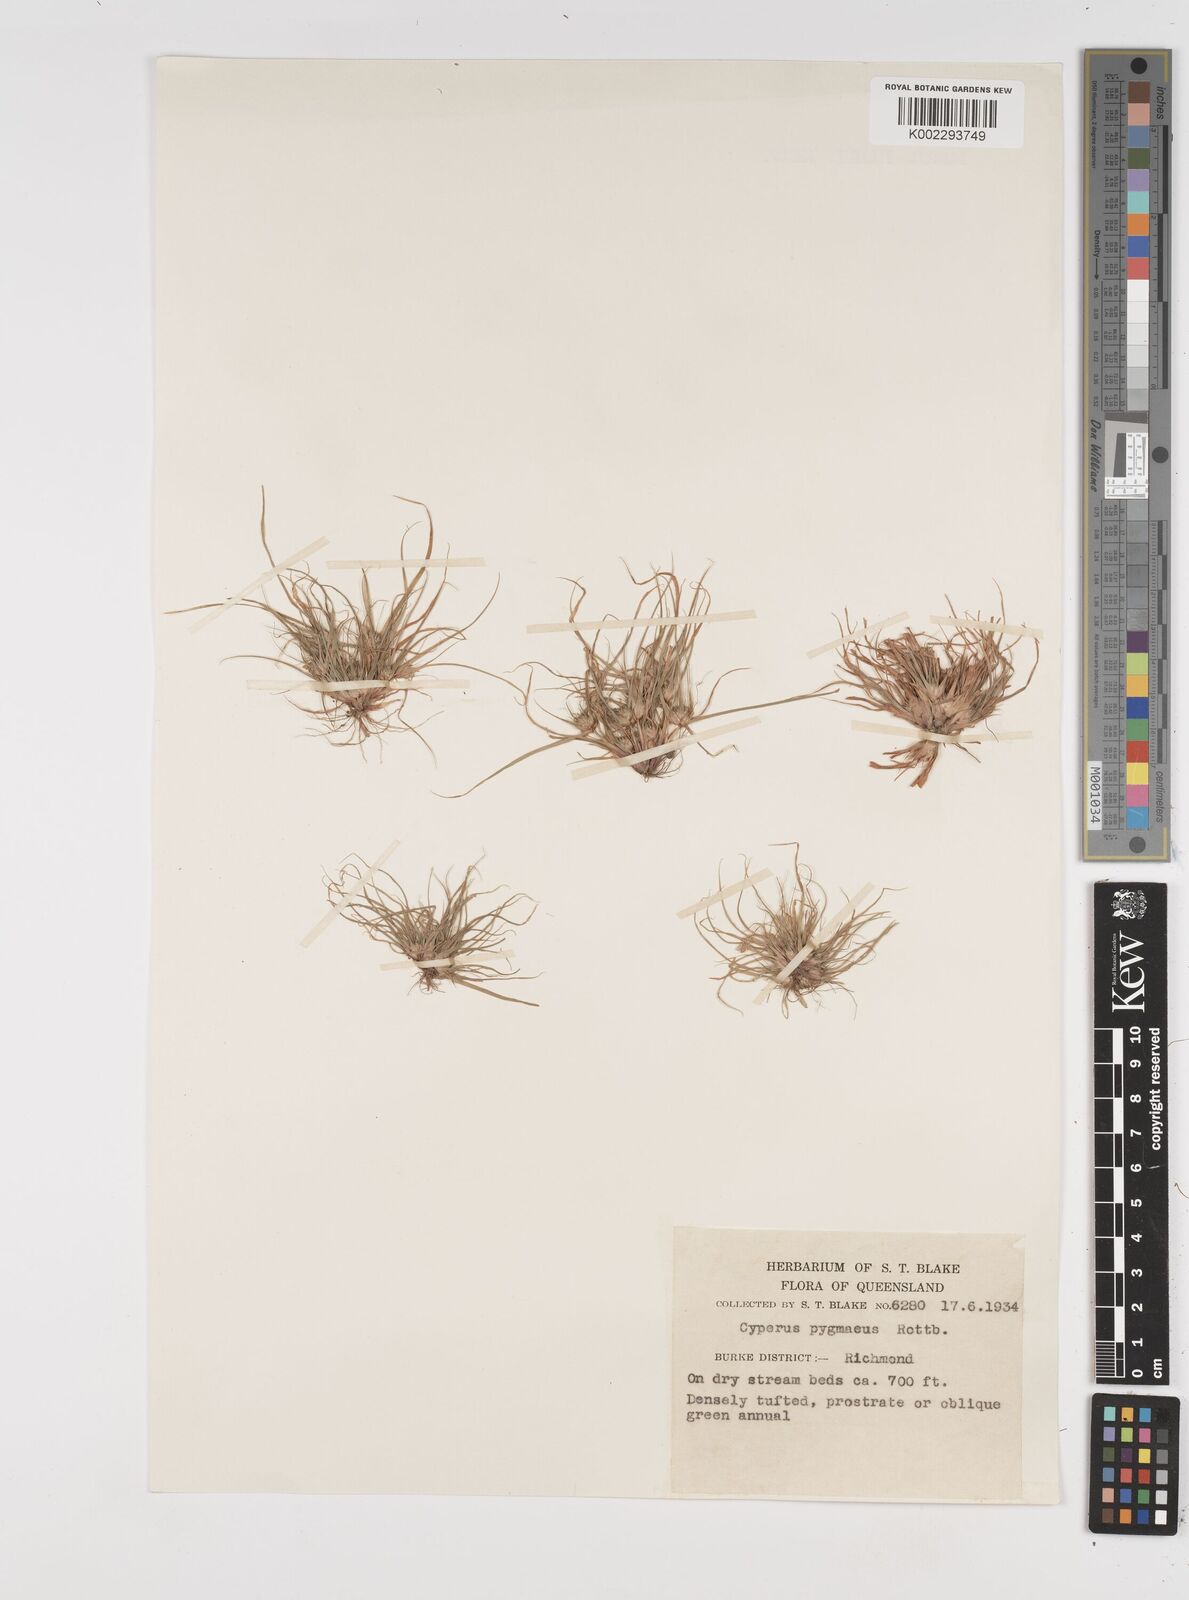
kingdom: Plantae
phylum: Tracheophyta
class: Liliopsida
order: Poales
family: Cyperaceae
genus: Cyperus
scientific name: Cyperus michelianus
